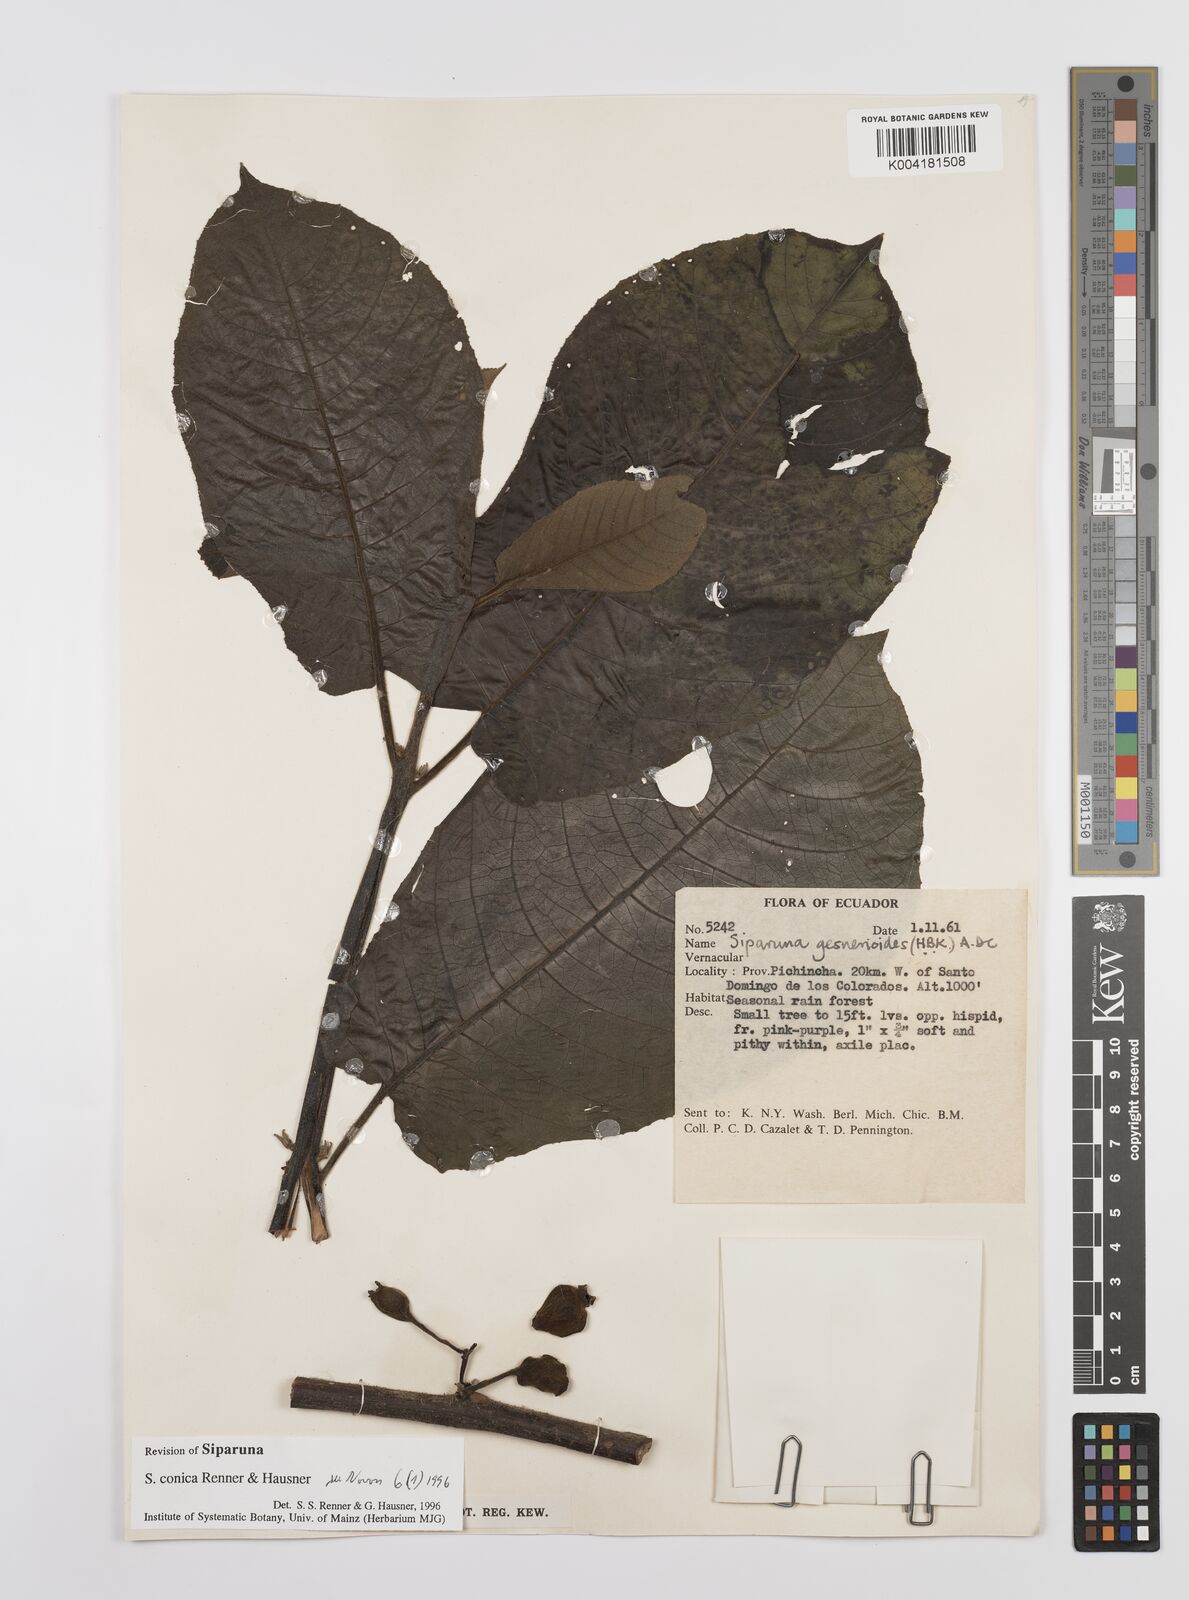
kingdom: Plantae
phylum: Tracheophyta
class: Magnoliopsida
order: Laurales
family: Siparunaceae
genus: Siparuna
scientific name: Siparuna conica
